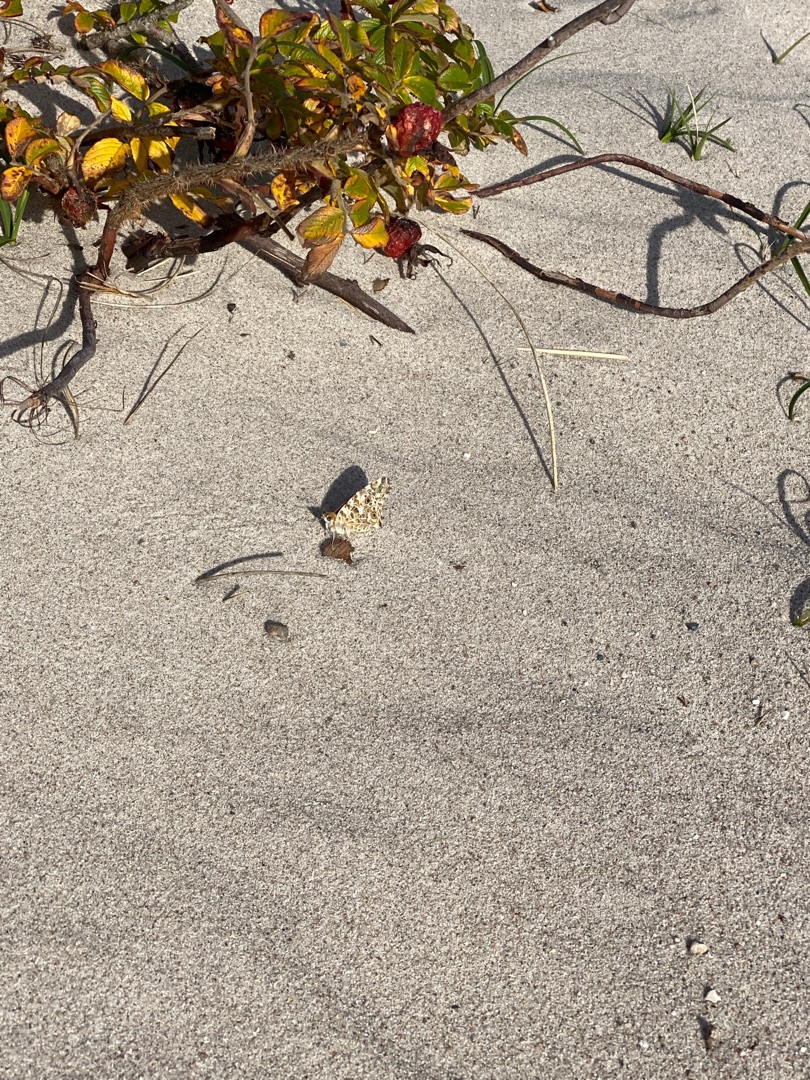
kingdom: Animalia
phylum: Arthropoda
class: Insecta
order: Lepidoptera
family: Nymphalidae
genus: Vanessa
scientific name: Vanessa cardui
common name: Tidselsommerfugl
